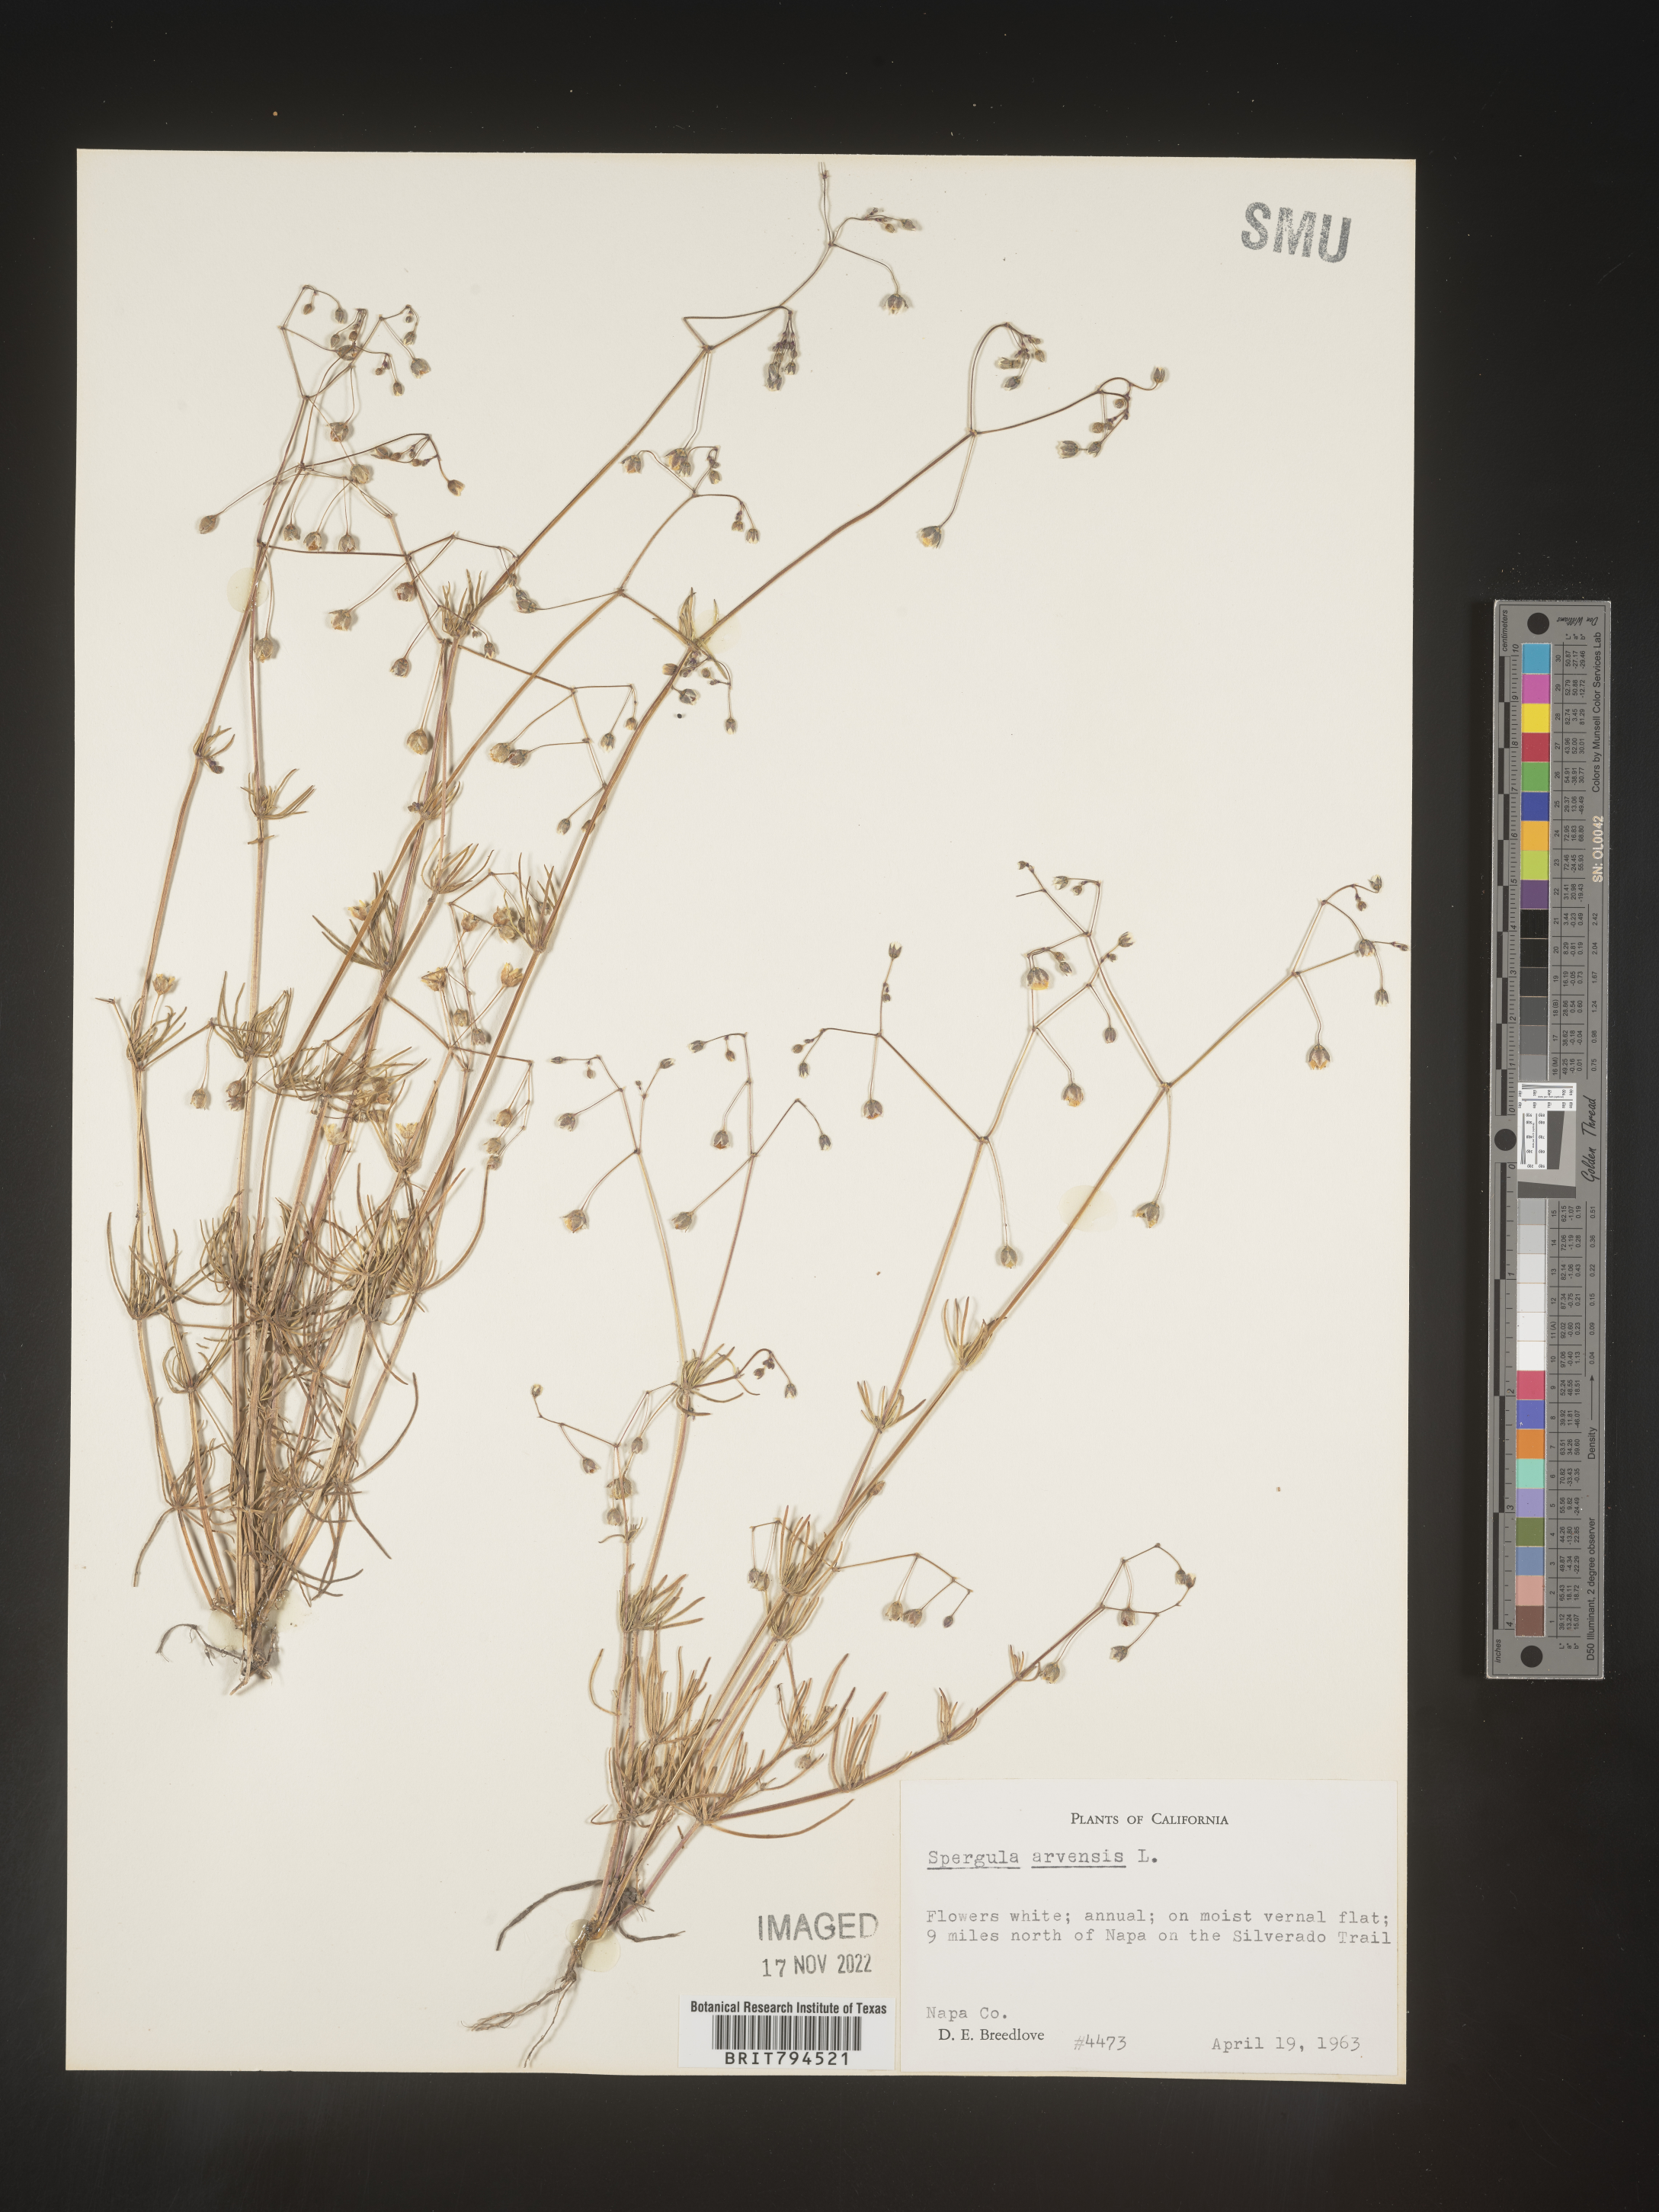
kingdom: Plantae
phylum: Tracheophyta
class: Magnoliopsida
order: Caryophyllales
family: Caryophyllaceae
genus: Spergula
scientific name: Spergula arvensis
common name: Corn spurrey
